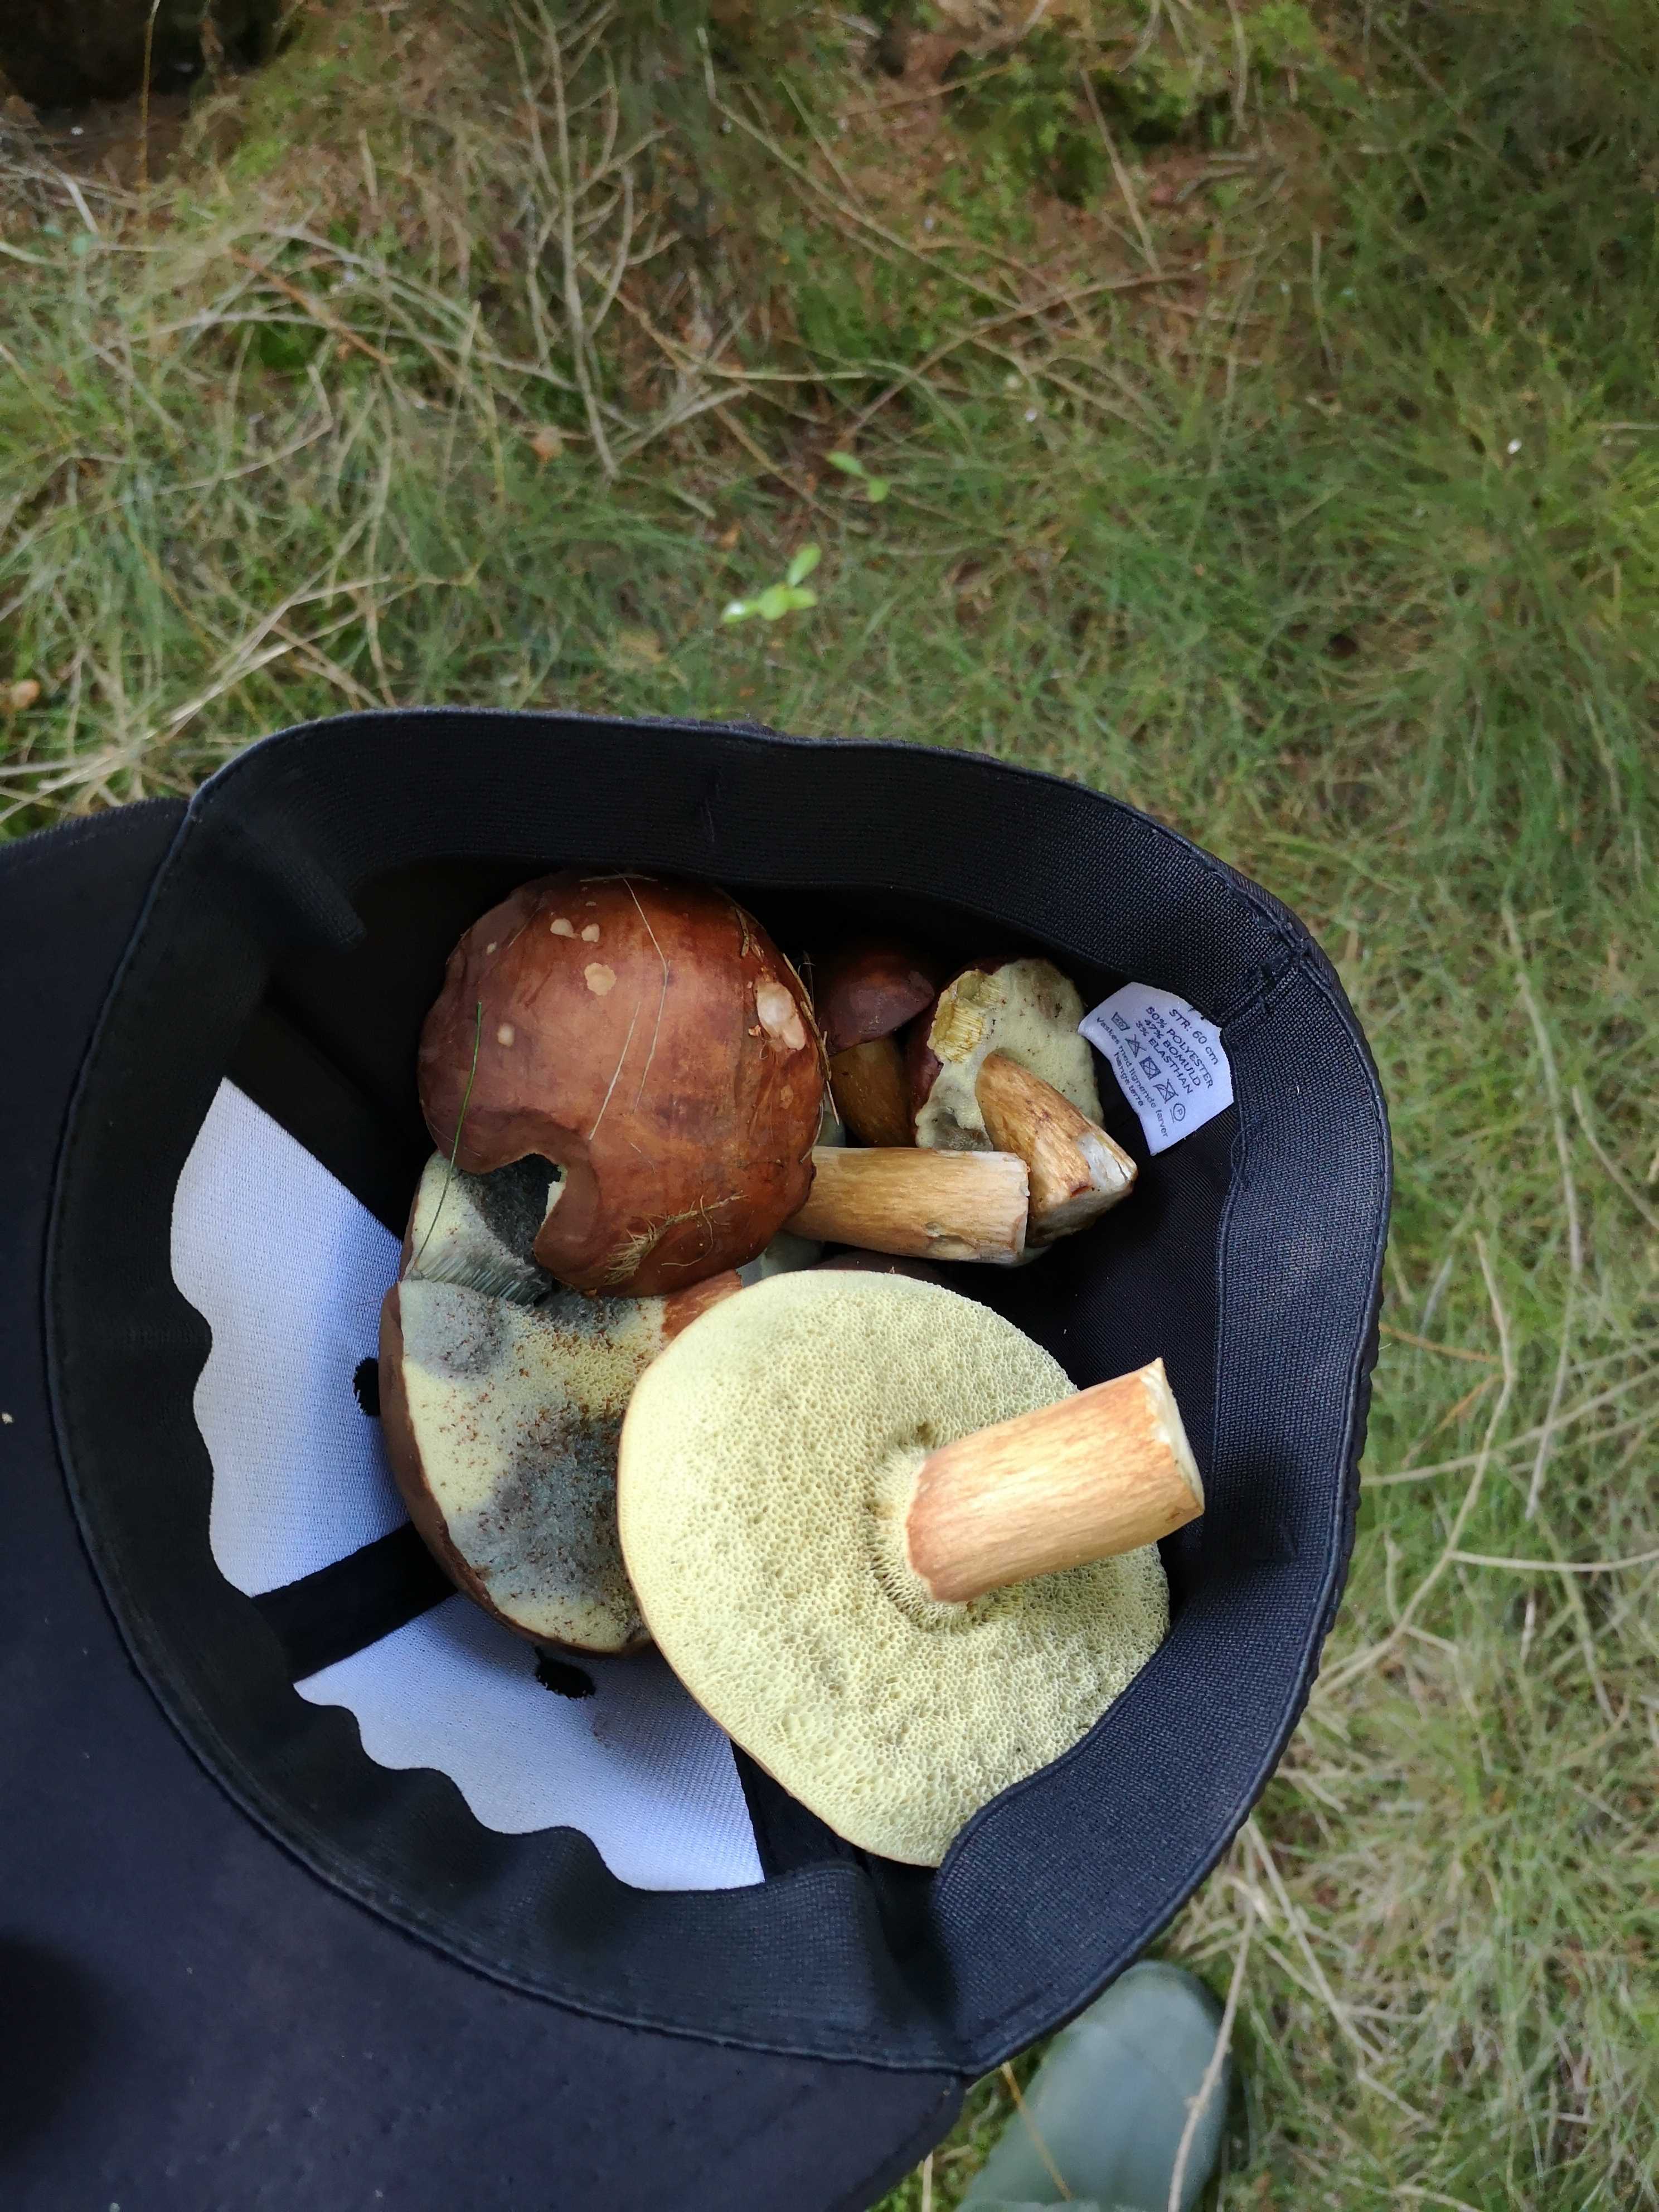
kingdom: Fungi
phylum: Basidiomycota
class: Agaricomycetes
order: Boletales
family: Boletaceae
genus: Imleria
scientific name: Imleria badia
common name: brunstokket rørhat
